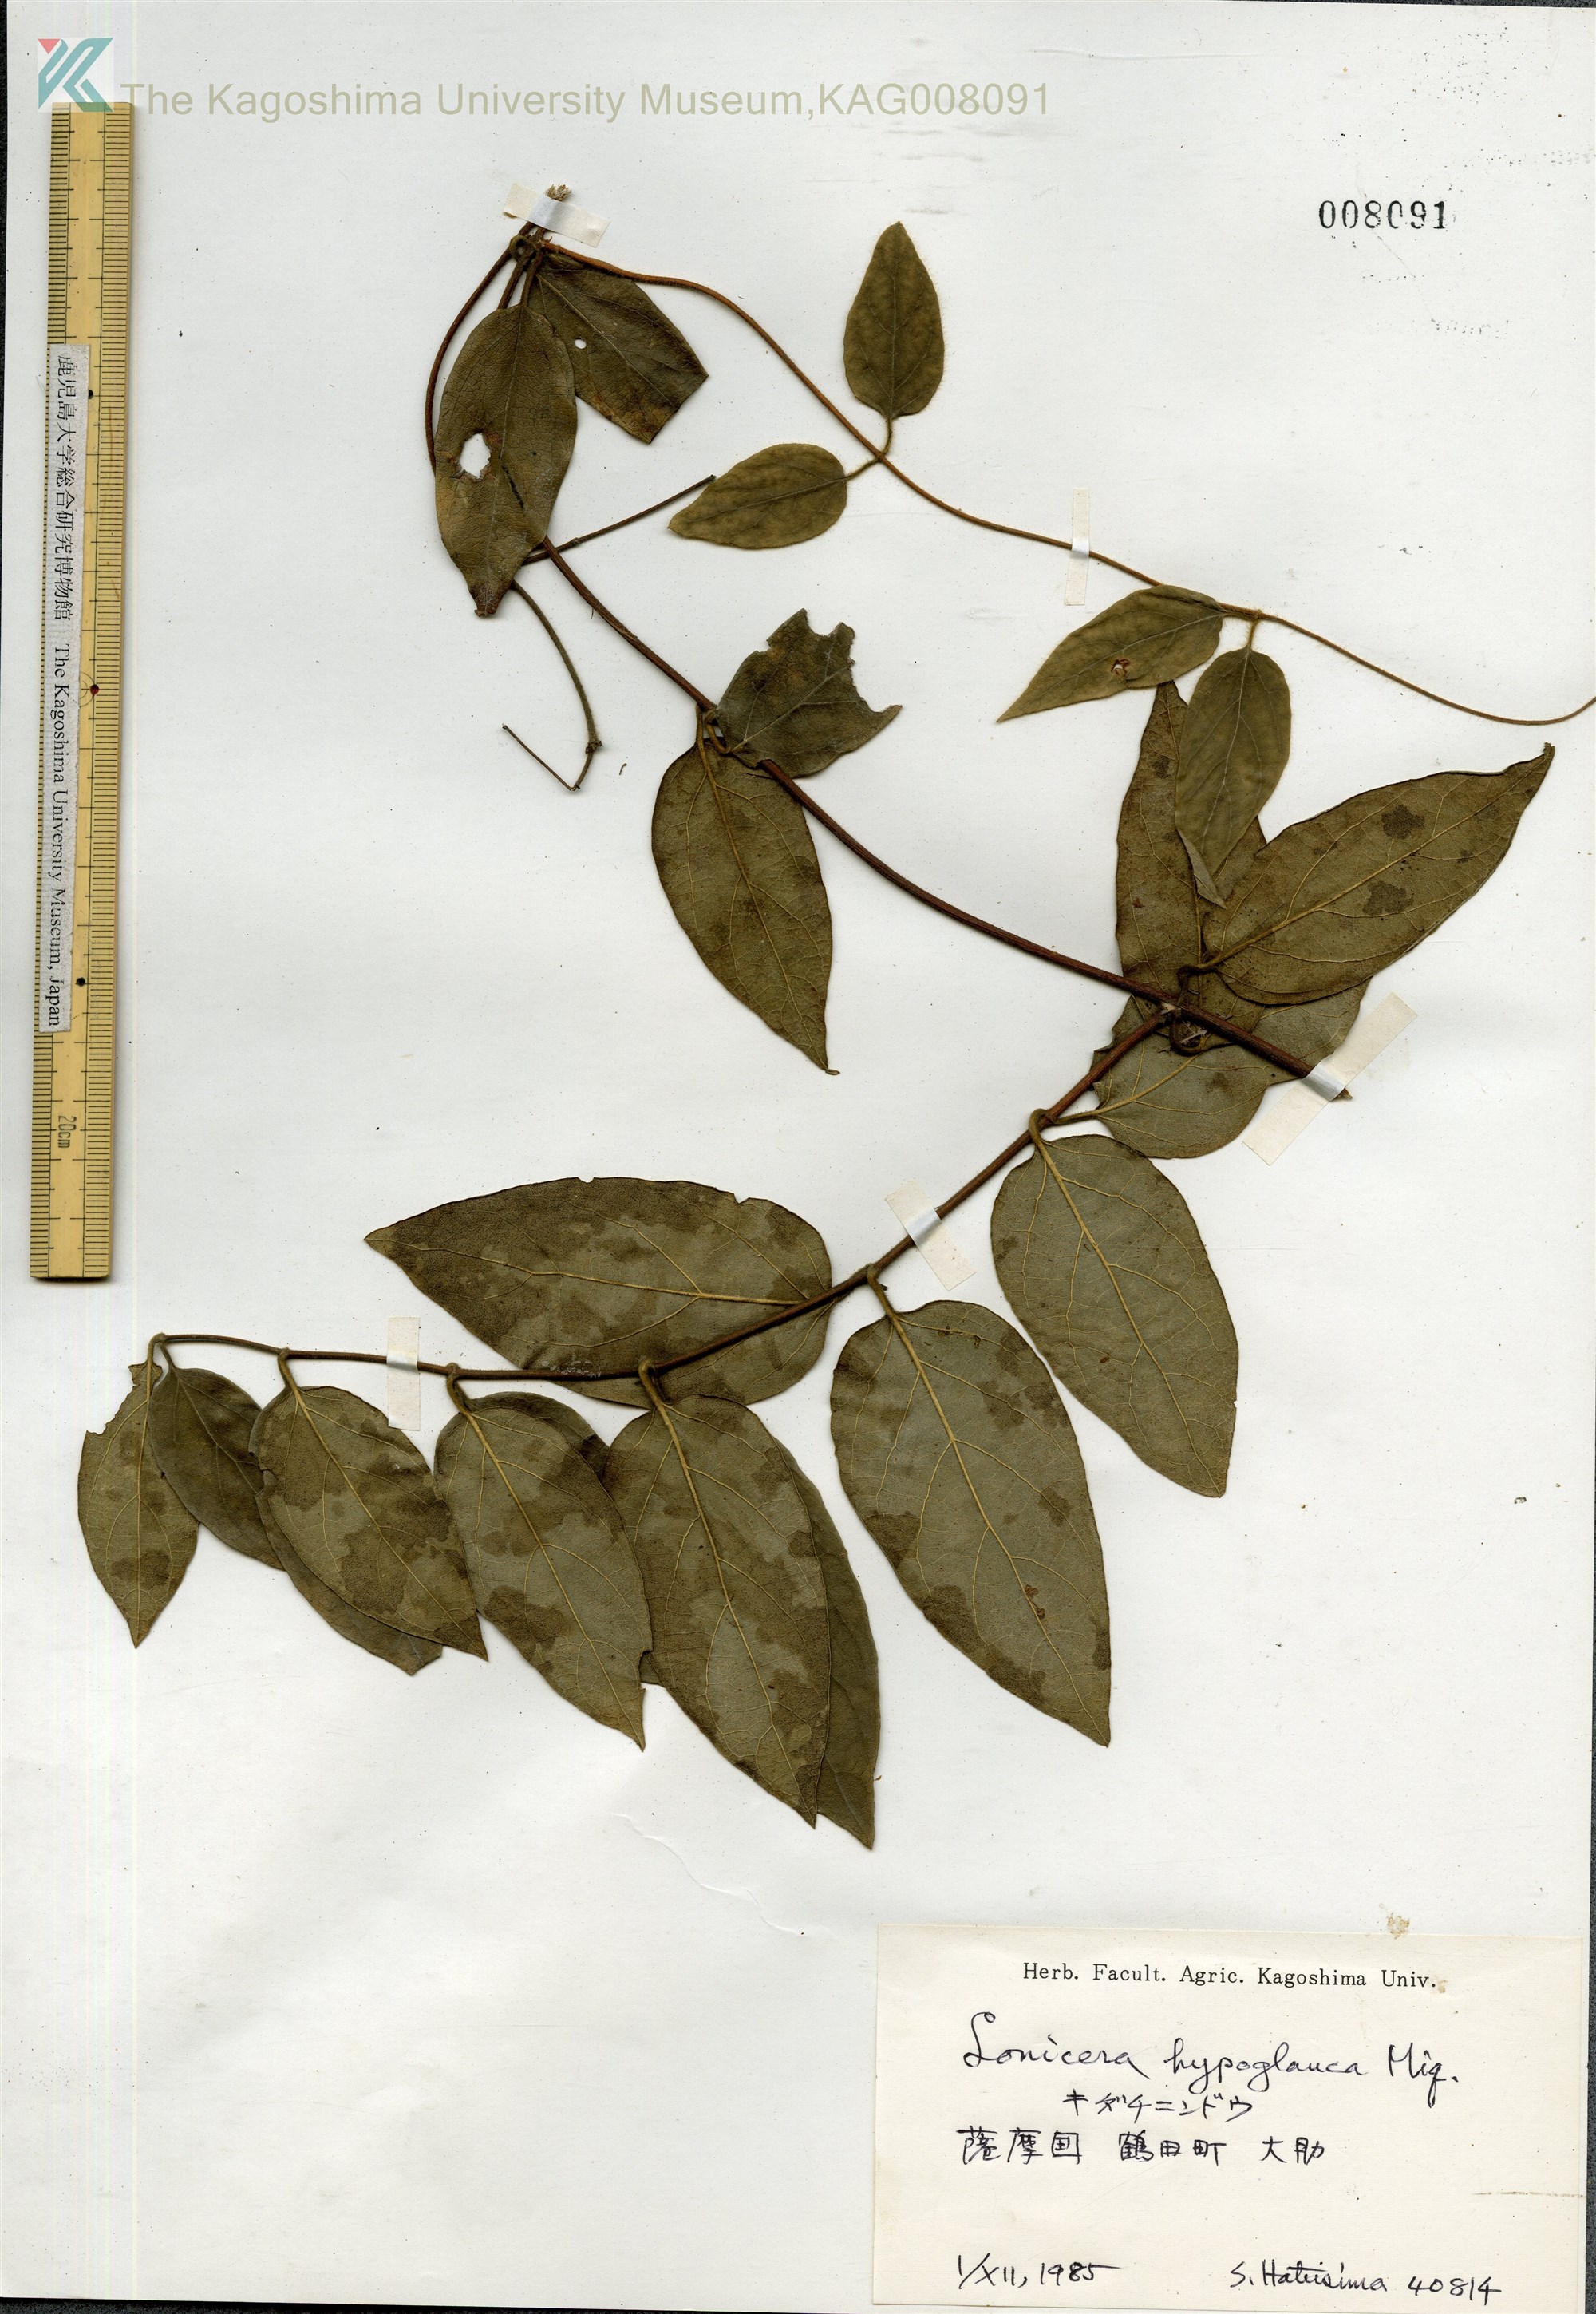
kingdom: Plantae
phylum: Tracheophyta
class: Magnoliopsida
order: Dipsacales
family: Caprifoliaceae
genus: Lonicera
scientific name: Lonicera hypoglauca
